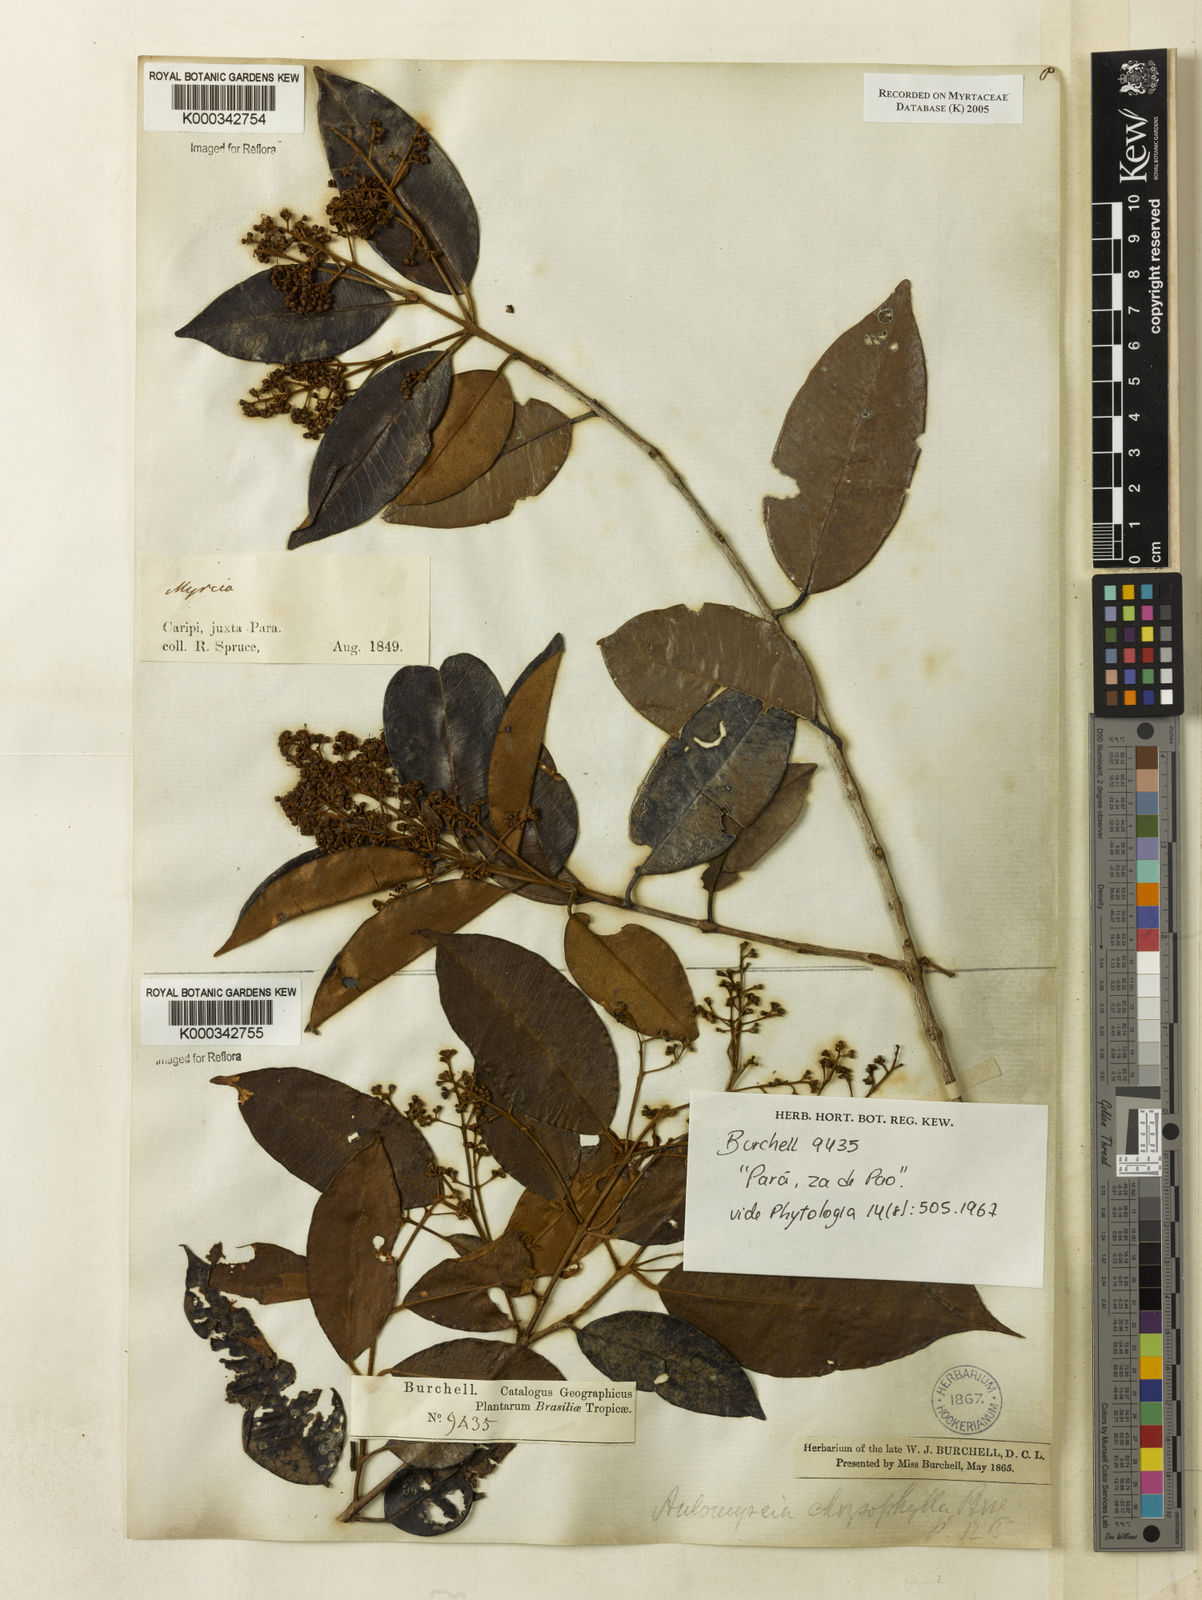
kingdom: Plantae
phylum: Tracheophyta
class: Magnoliopsida
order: Myrtales
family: Myrtaceae
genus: Myrcia
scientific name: Myrcia cuprea
